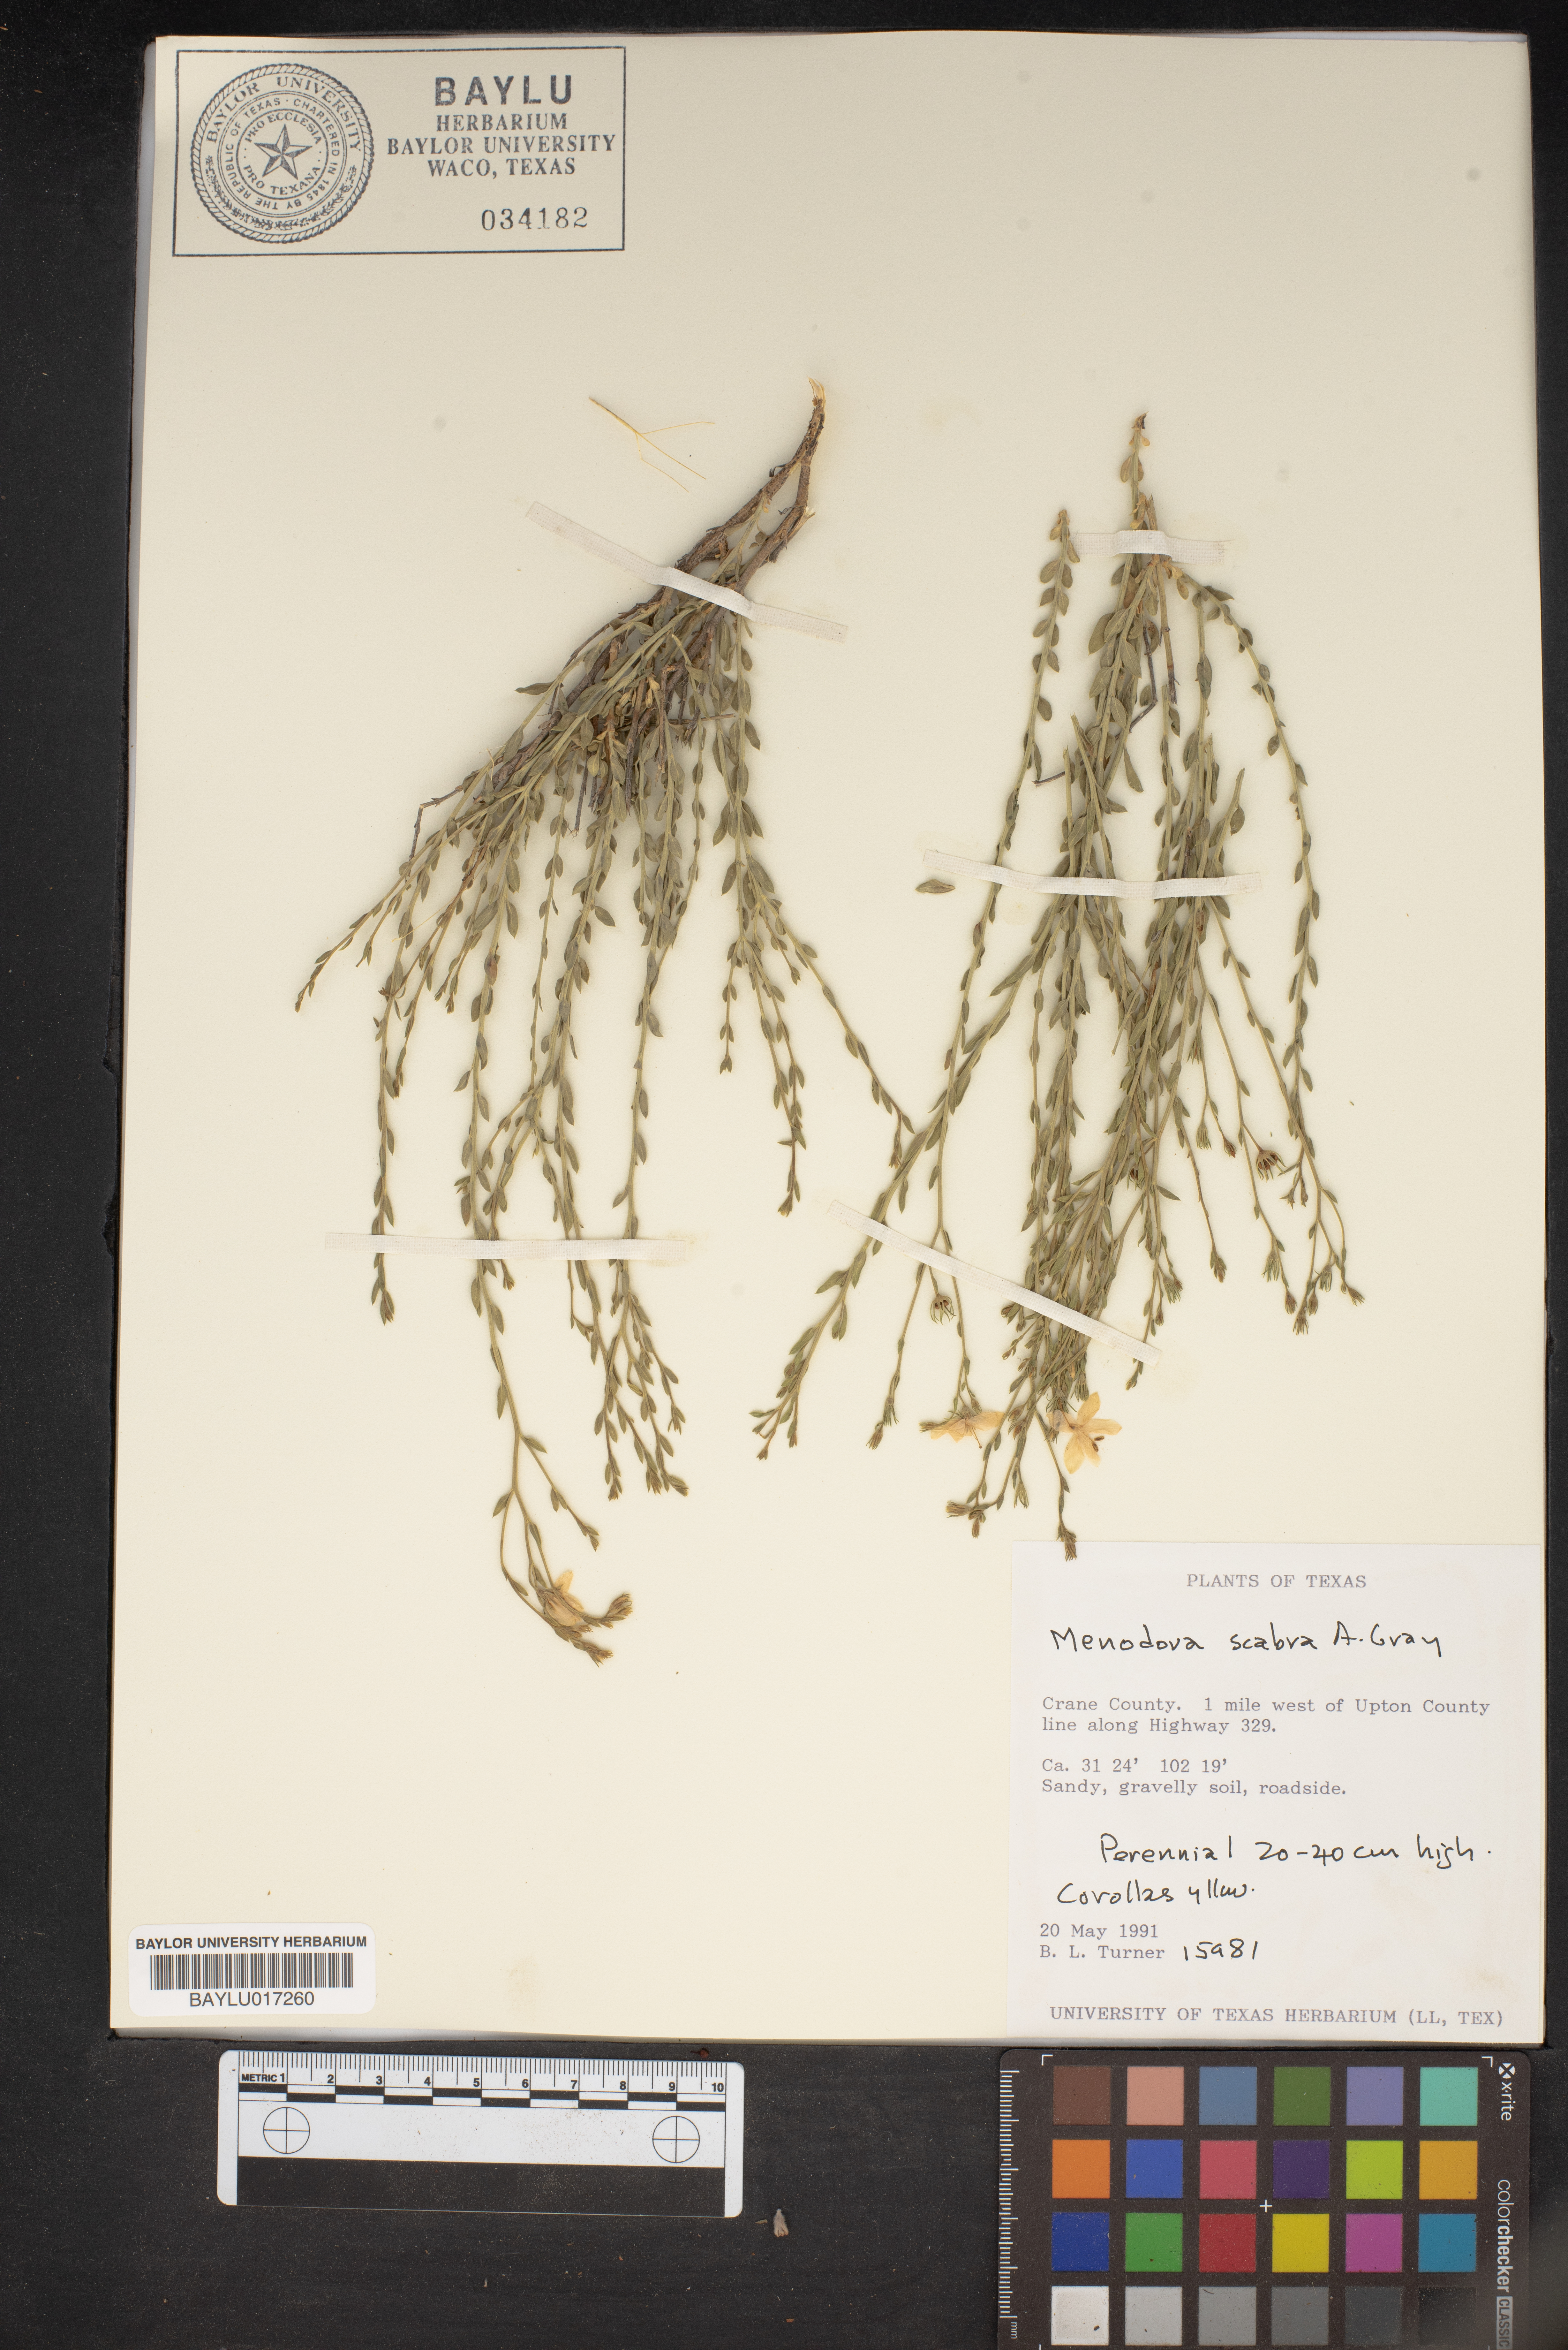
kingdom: Plantae
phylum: Tracheophyta
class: Magnoliopsida
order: Lamiales
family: Oleaceae
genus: Menodora
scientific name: Menodora scabra
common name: Rough menodora
